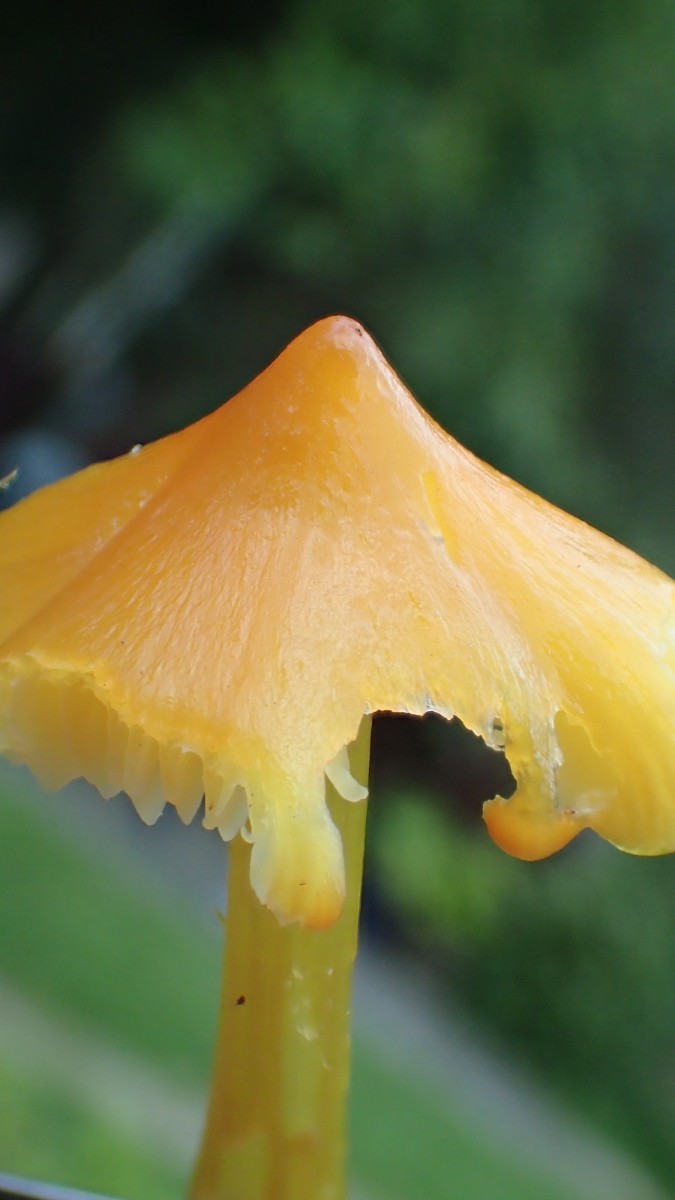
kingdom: Fungi
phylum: Basidiomycota
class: Agaricomycetes
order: Agaricales
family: Hygrophoraceae
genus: Hygrocybe
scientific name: Hygrocybe
